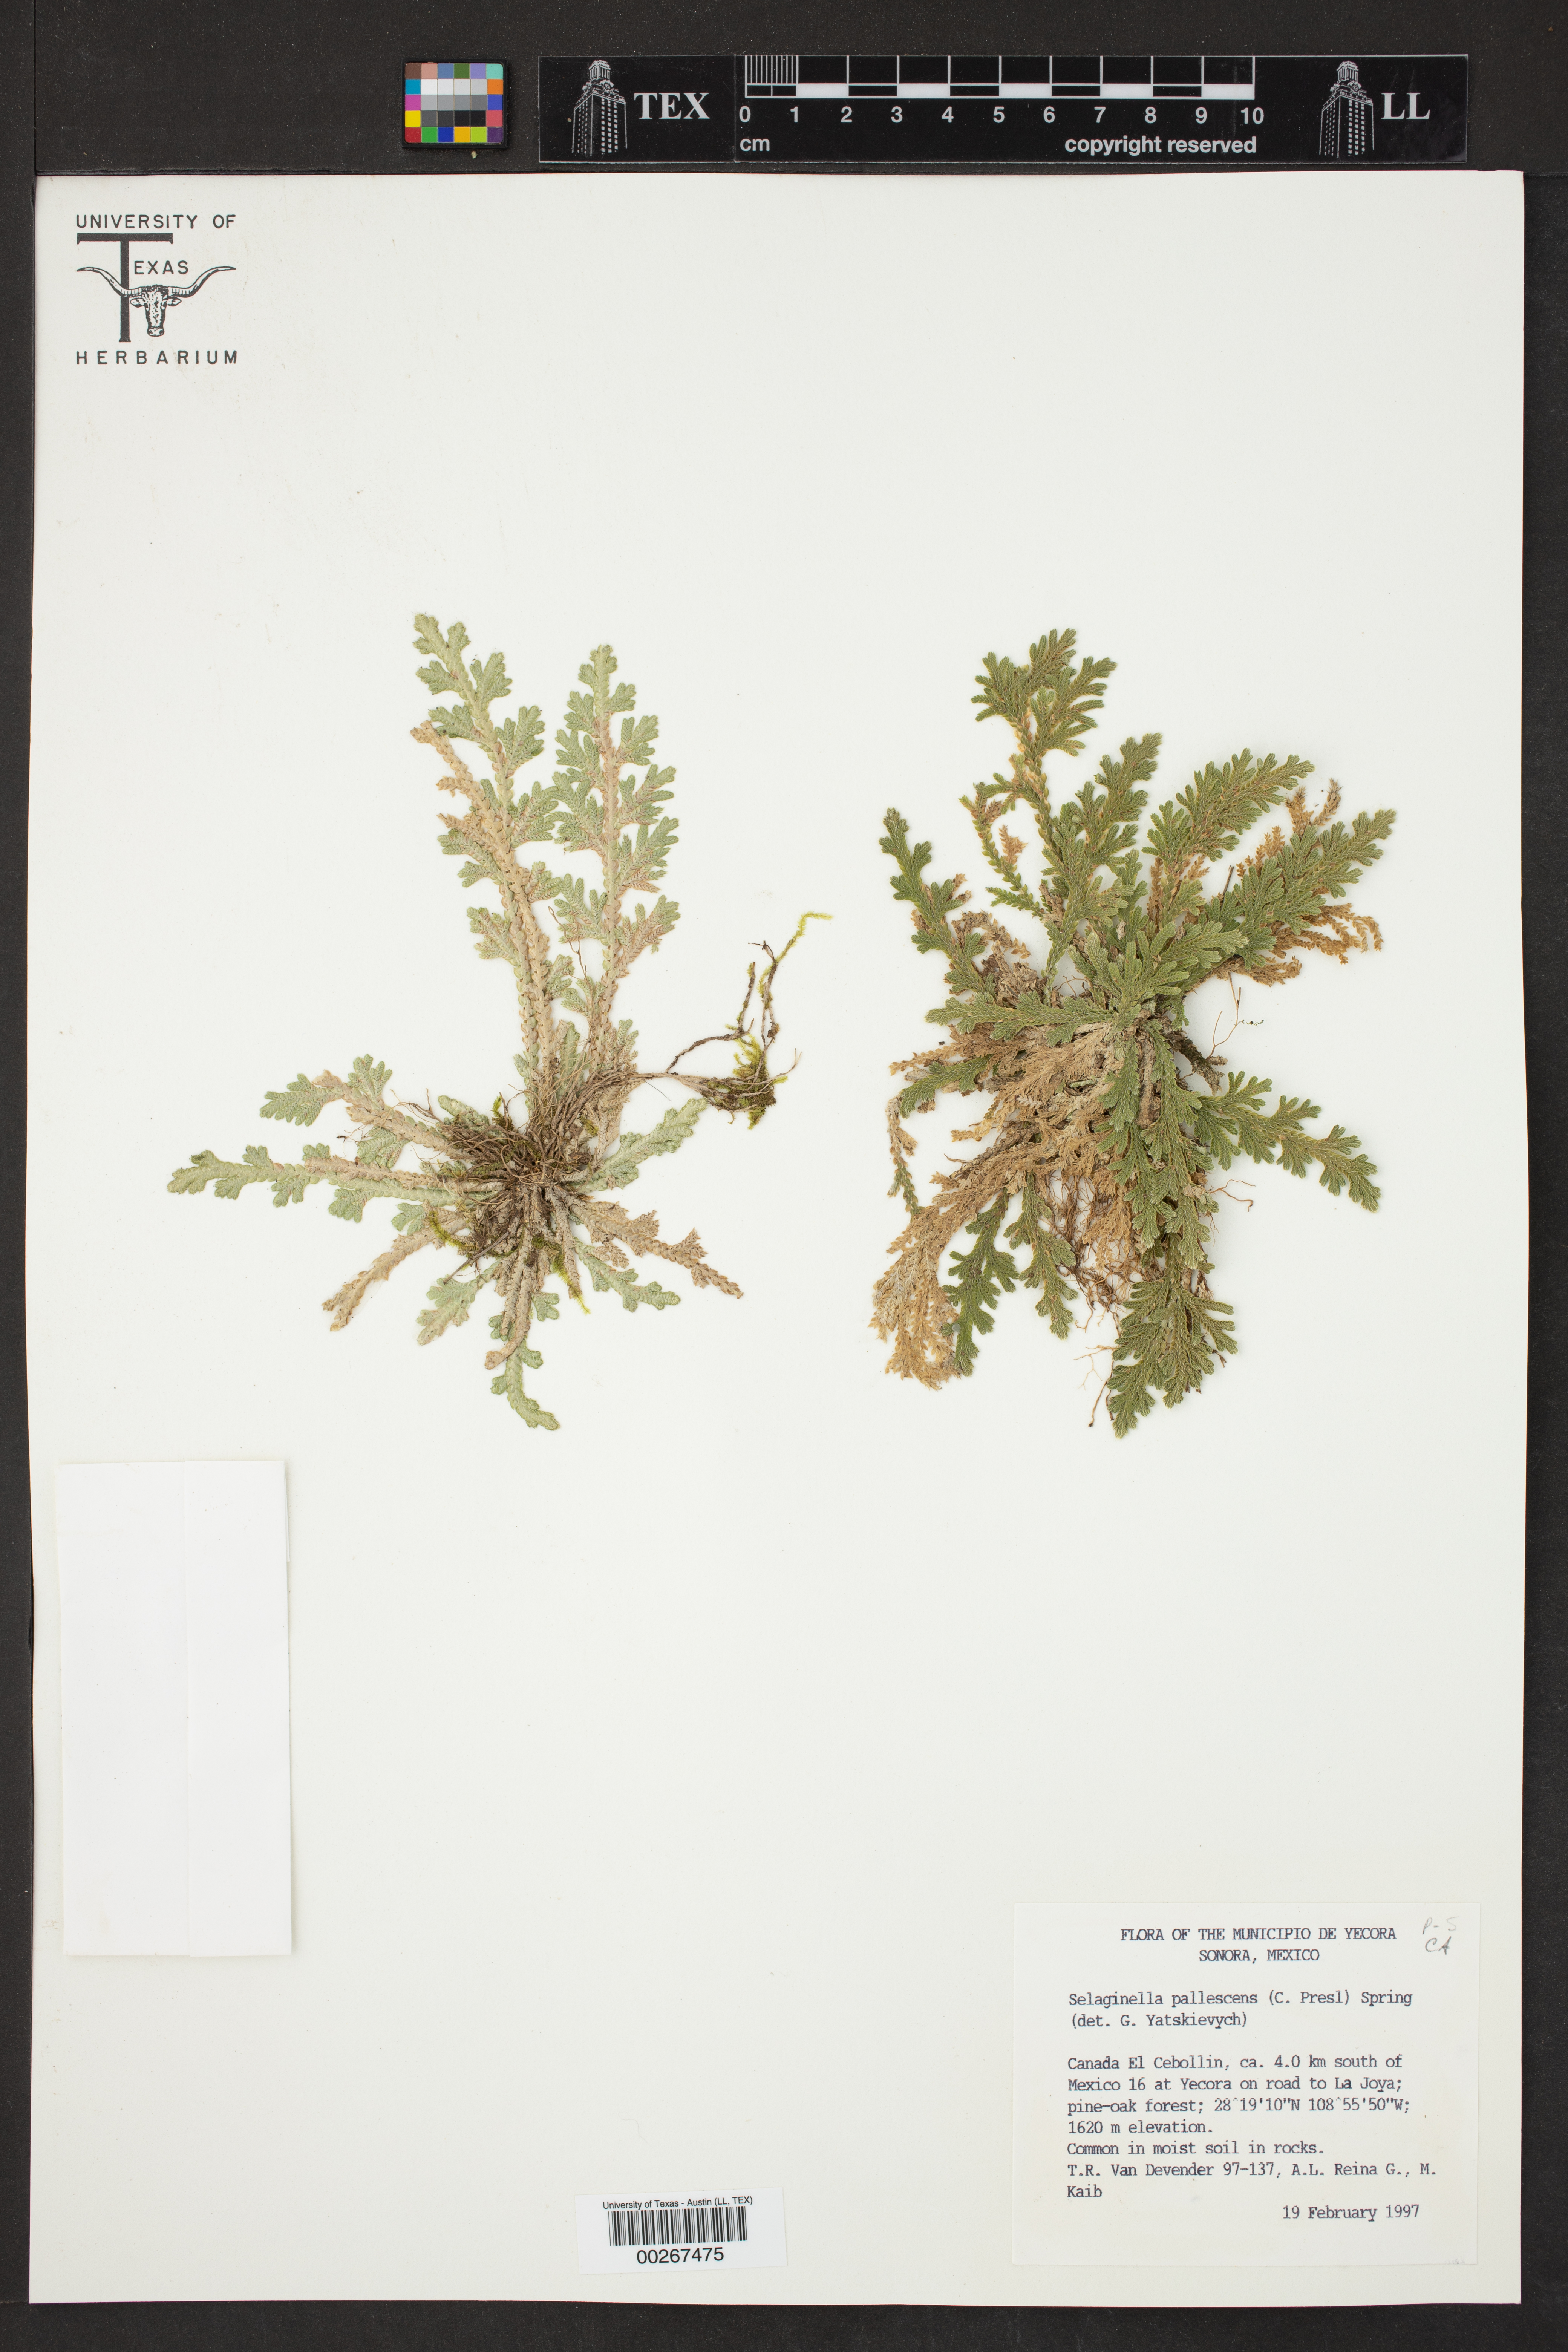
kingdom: Plantae
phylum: Tracheophyta
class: Lycopodiopsida
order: Selaginellales
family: Selaginellaceae
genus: Selaginella
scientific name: Selaginella pallescens
